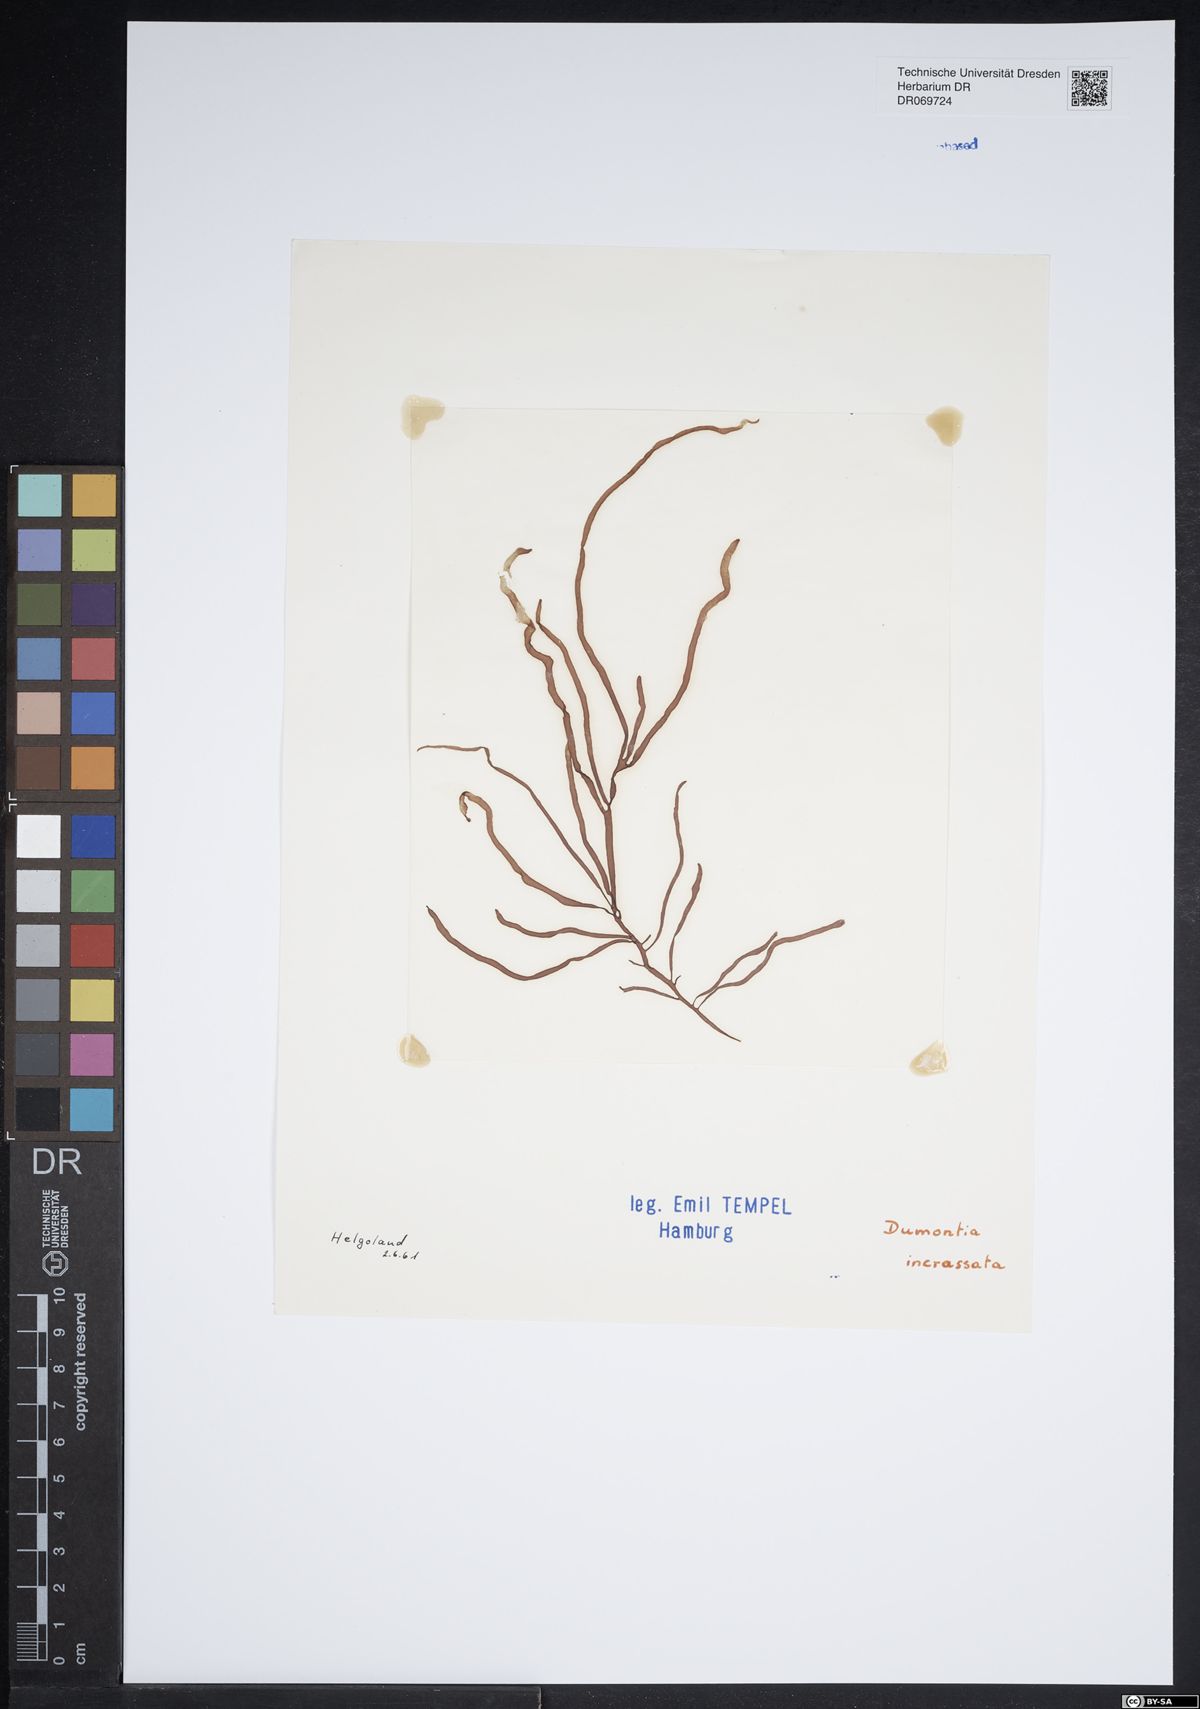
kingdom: Plantae
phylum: Rhodophyta
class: Florideophyceae
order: Gigartinales
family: Dumontiaceae
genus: Dumontia
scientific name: Dumontia contorta
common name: Worm weed
